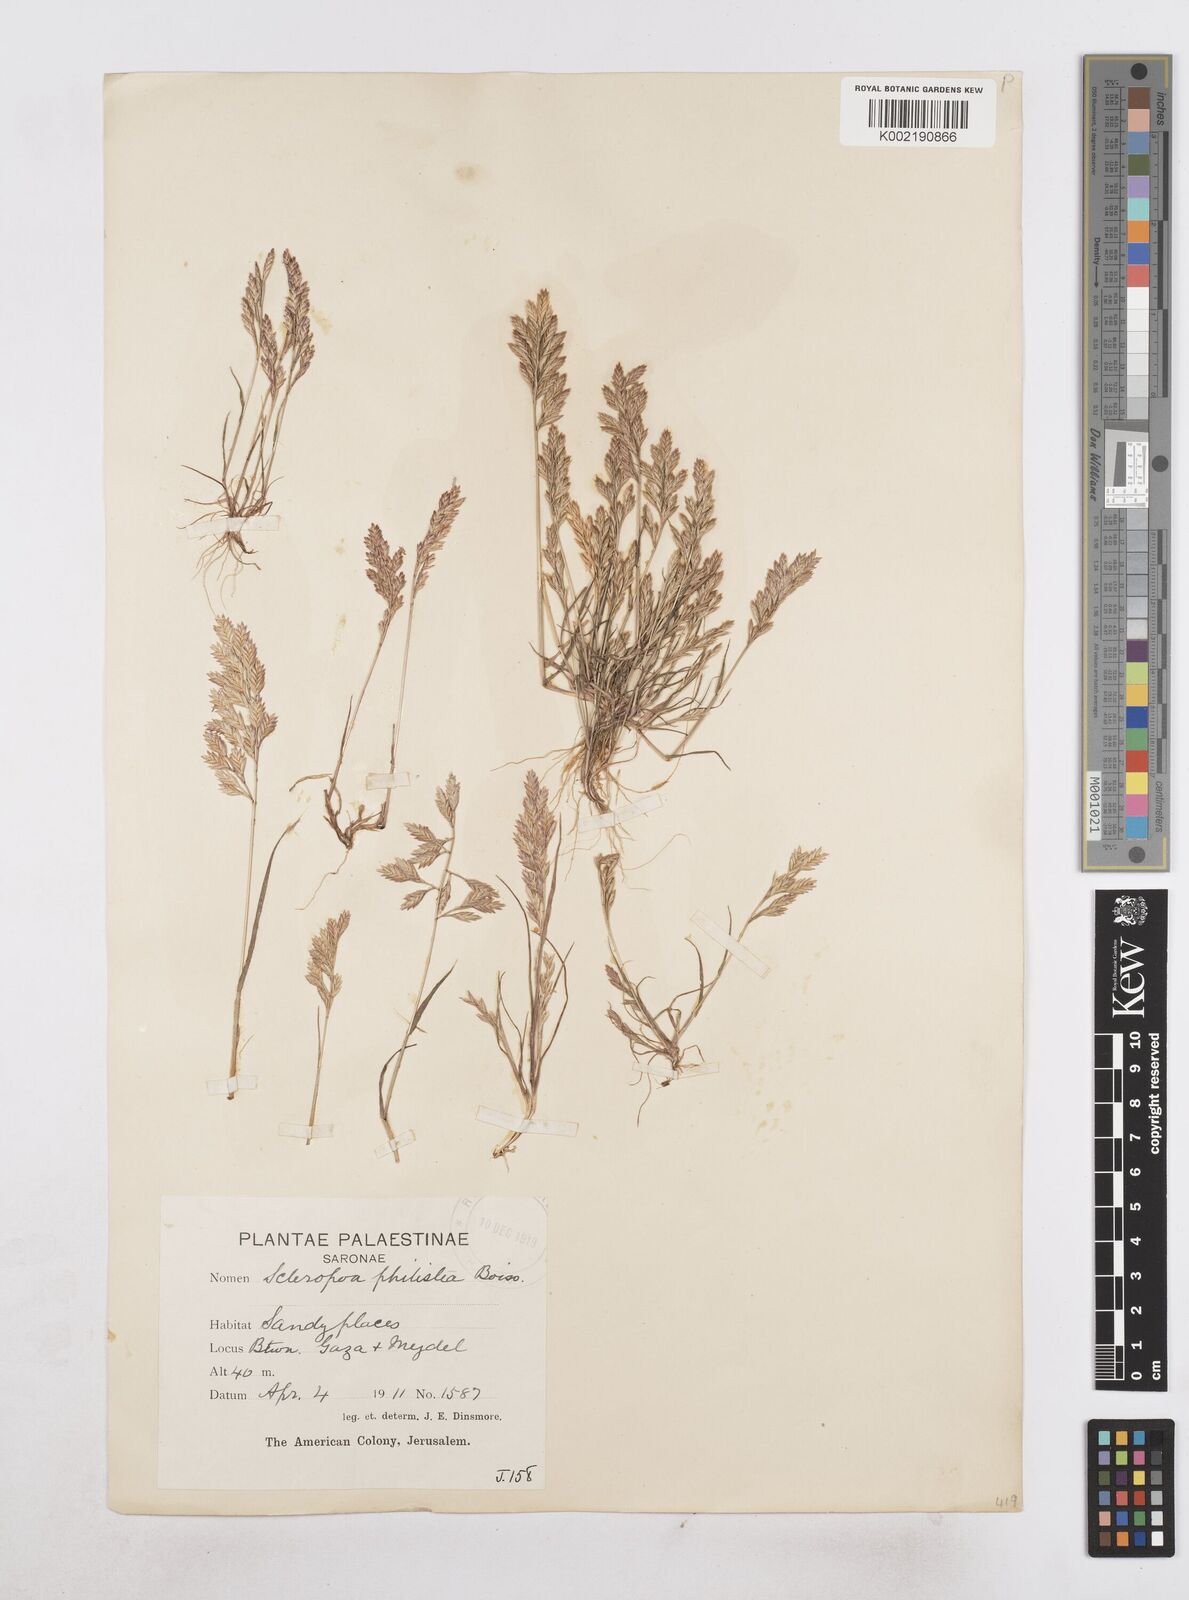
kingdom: Plantae
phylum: Tracheophyta
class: Liliopsida
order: Poales
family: Poaceae
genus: Desmazeria
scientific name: Desmazeria philistaea
